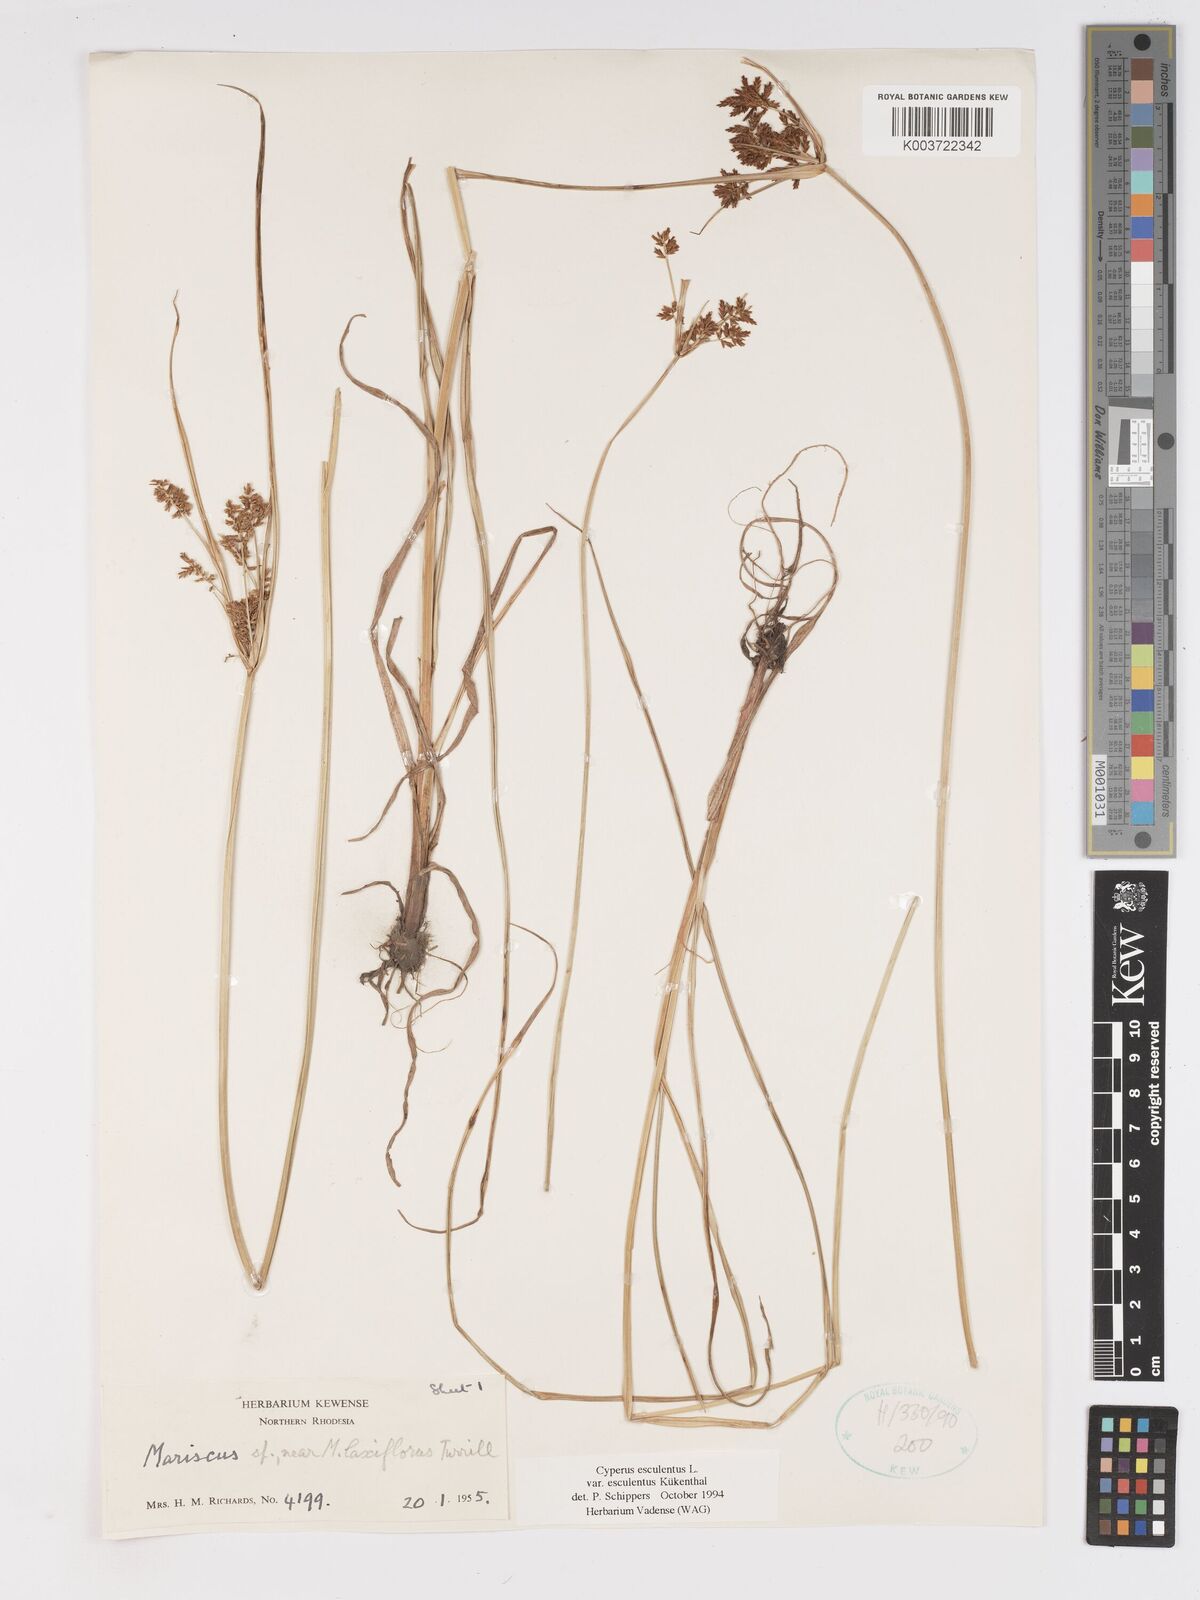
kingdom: Plantae
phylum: Tracheophyta
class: Liliopsida
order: Poales
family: Cyperaceae
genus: Cyperus
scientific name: Cyperus esculentus
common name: Yellow nutsedge
